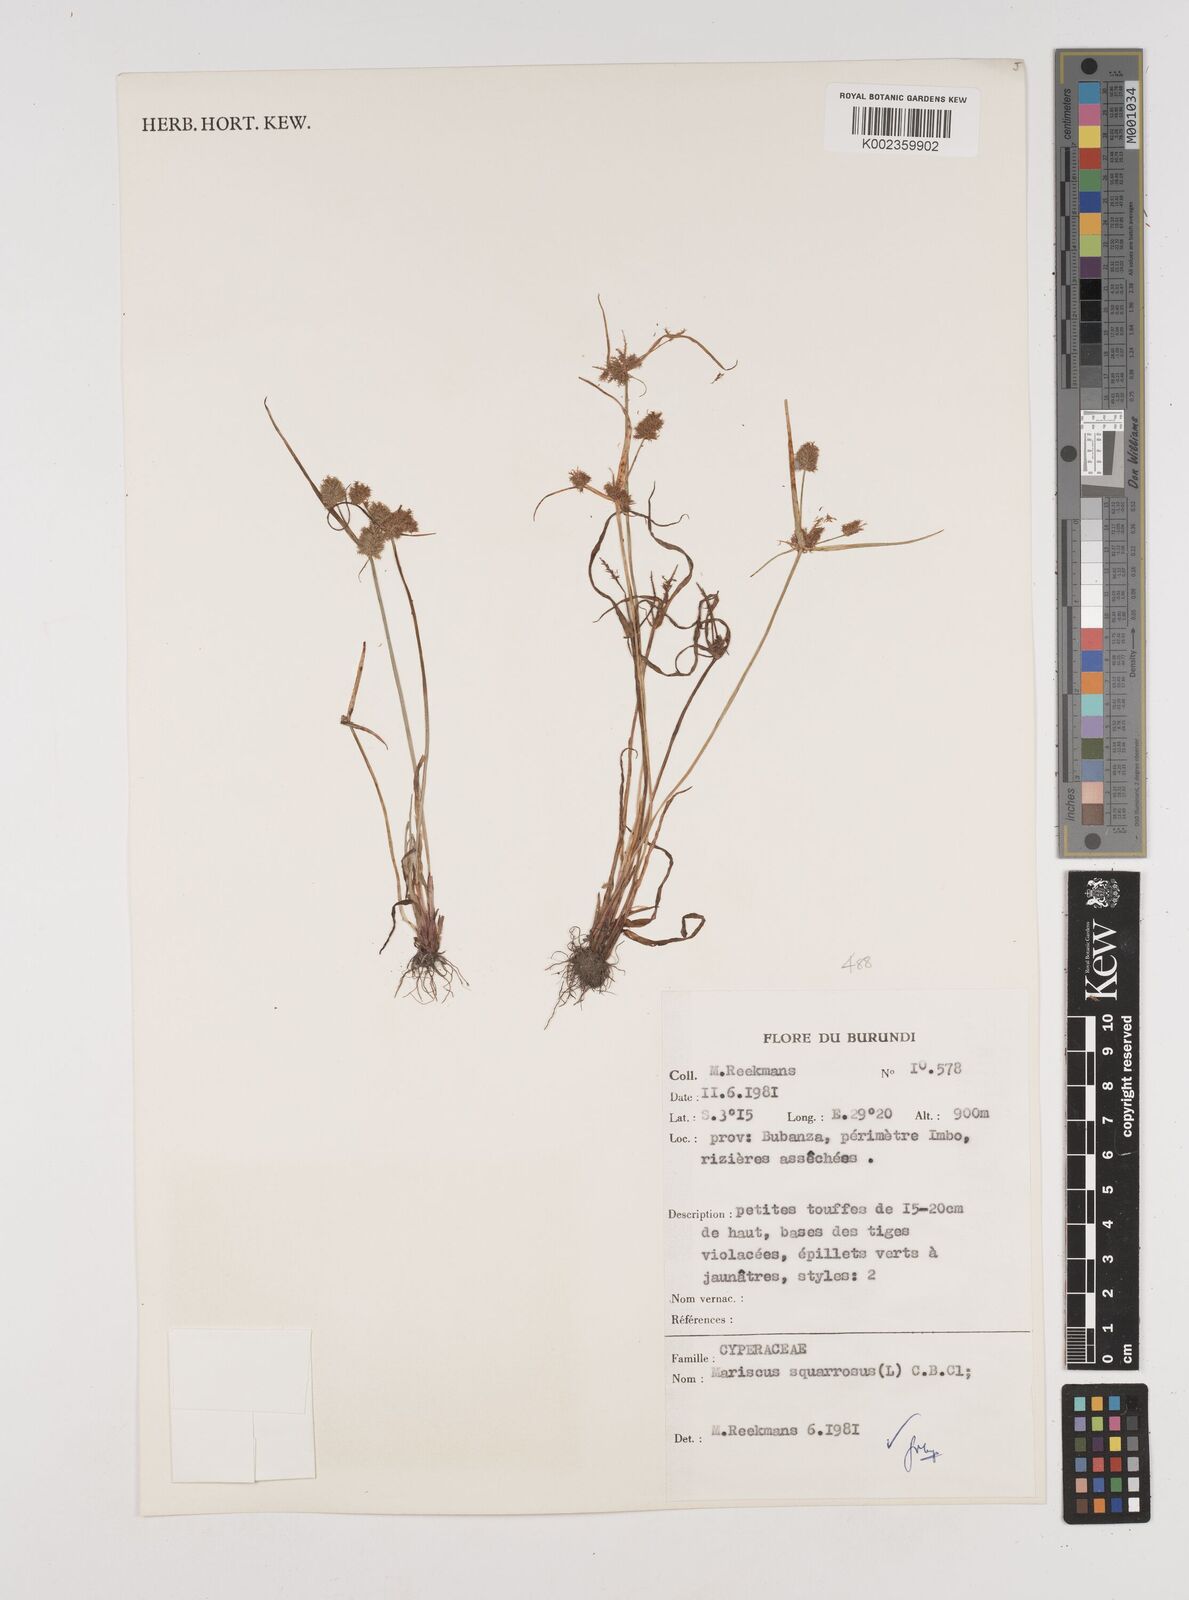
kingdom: Plantae
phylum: Tracheophyta
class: Liliopsida
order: Poales
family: Cyperaceae
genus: Cyperus
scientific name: Cyperus squarrosus
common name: Awned cyperus
